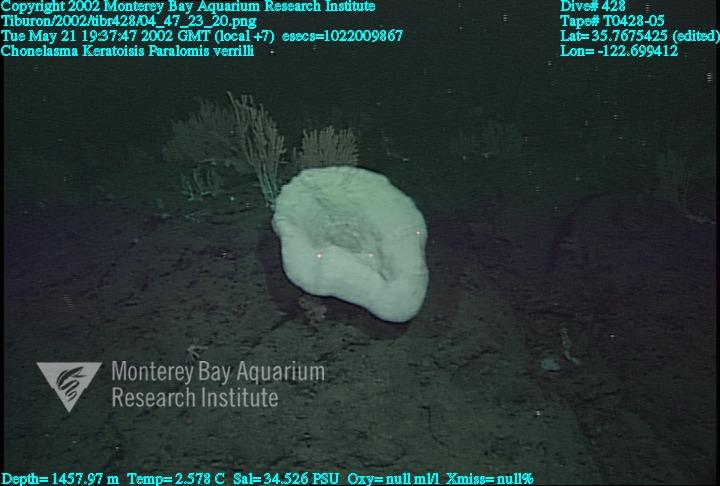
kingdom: Animalia
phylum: Porifera
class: Hexactinellida
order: Sceptrulophora
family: Euretidae
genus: Chonelasma
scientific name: Chonelasma
